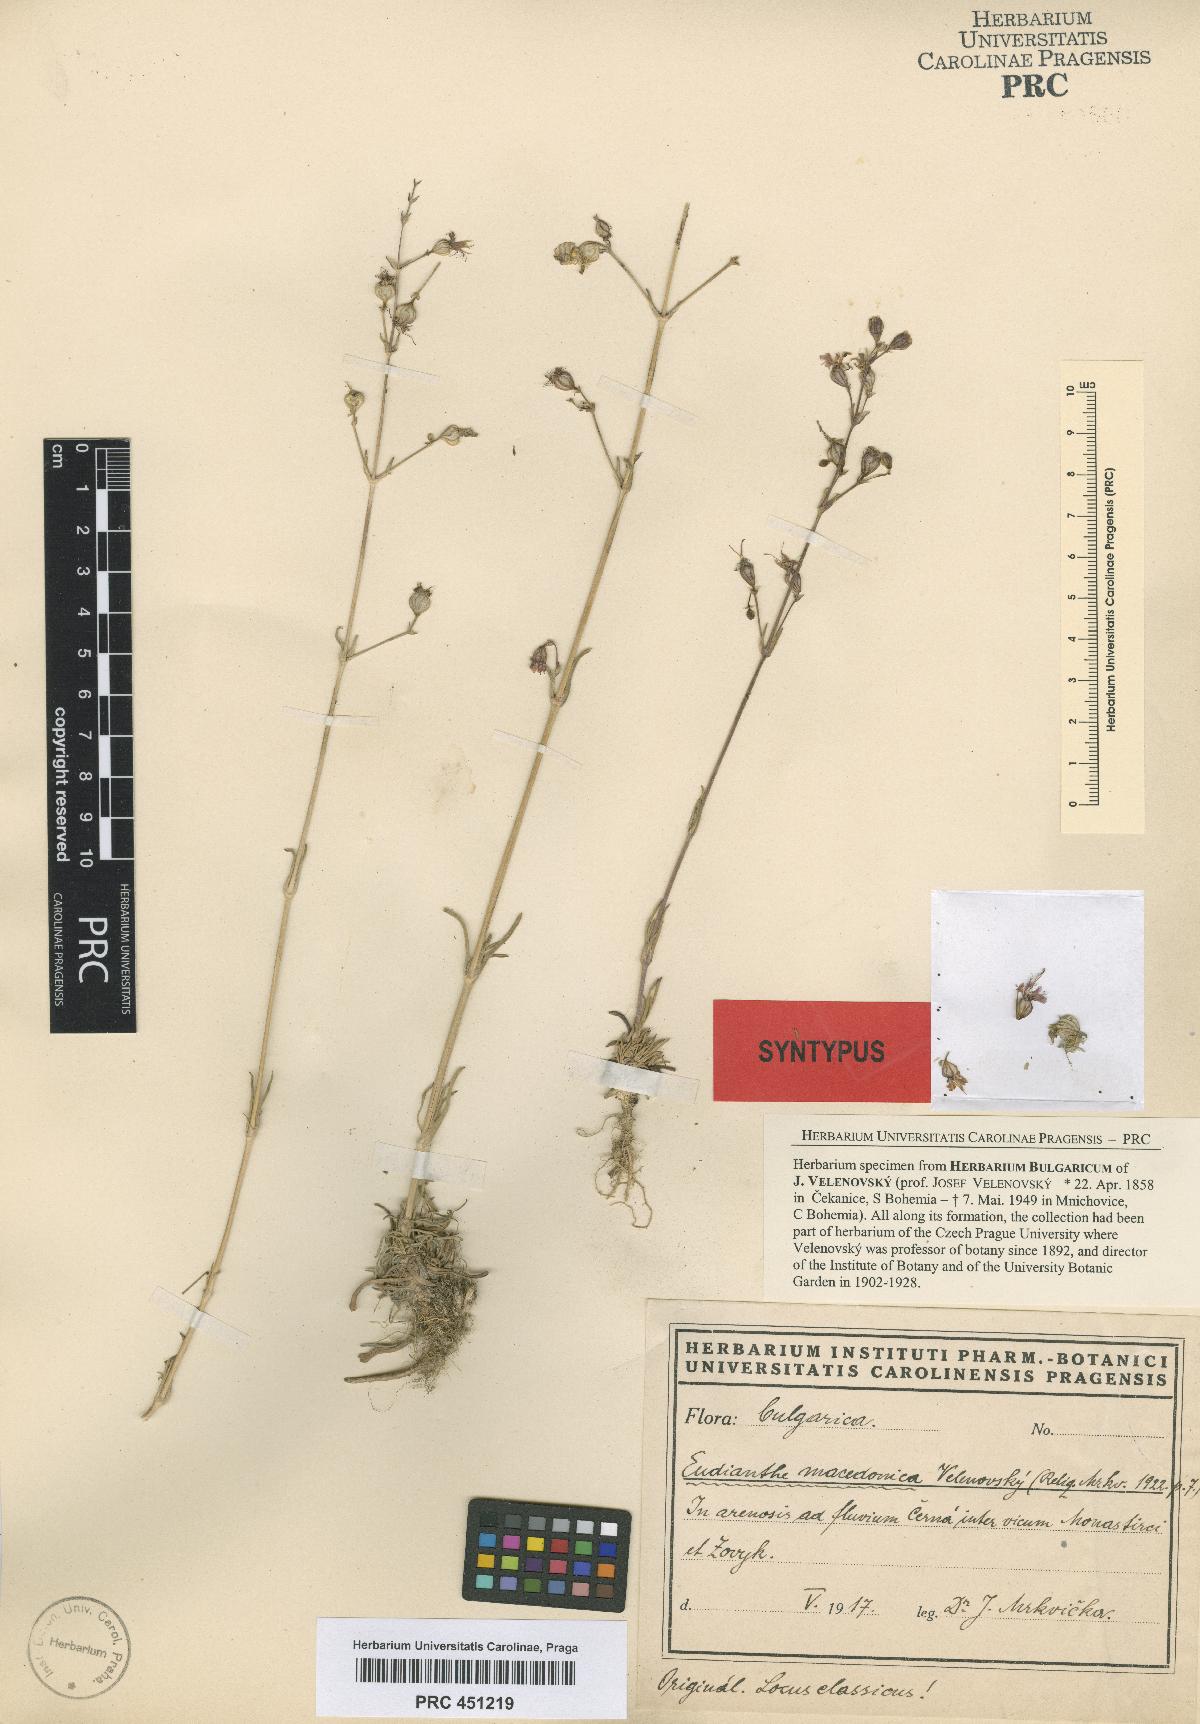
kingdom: Plantae
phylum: Tracheophyta
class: Magnoliopsida
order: Caryophyllales
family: Caryophyllaceae
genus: Silene
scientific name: Silene viscariopsis
